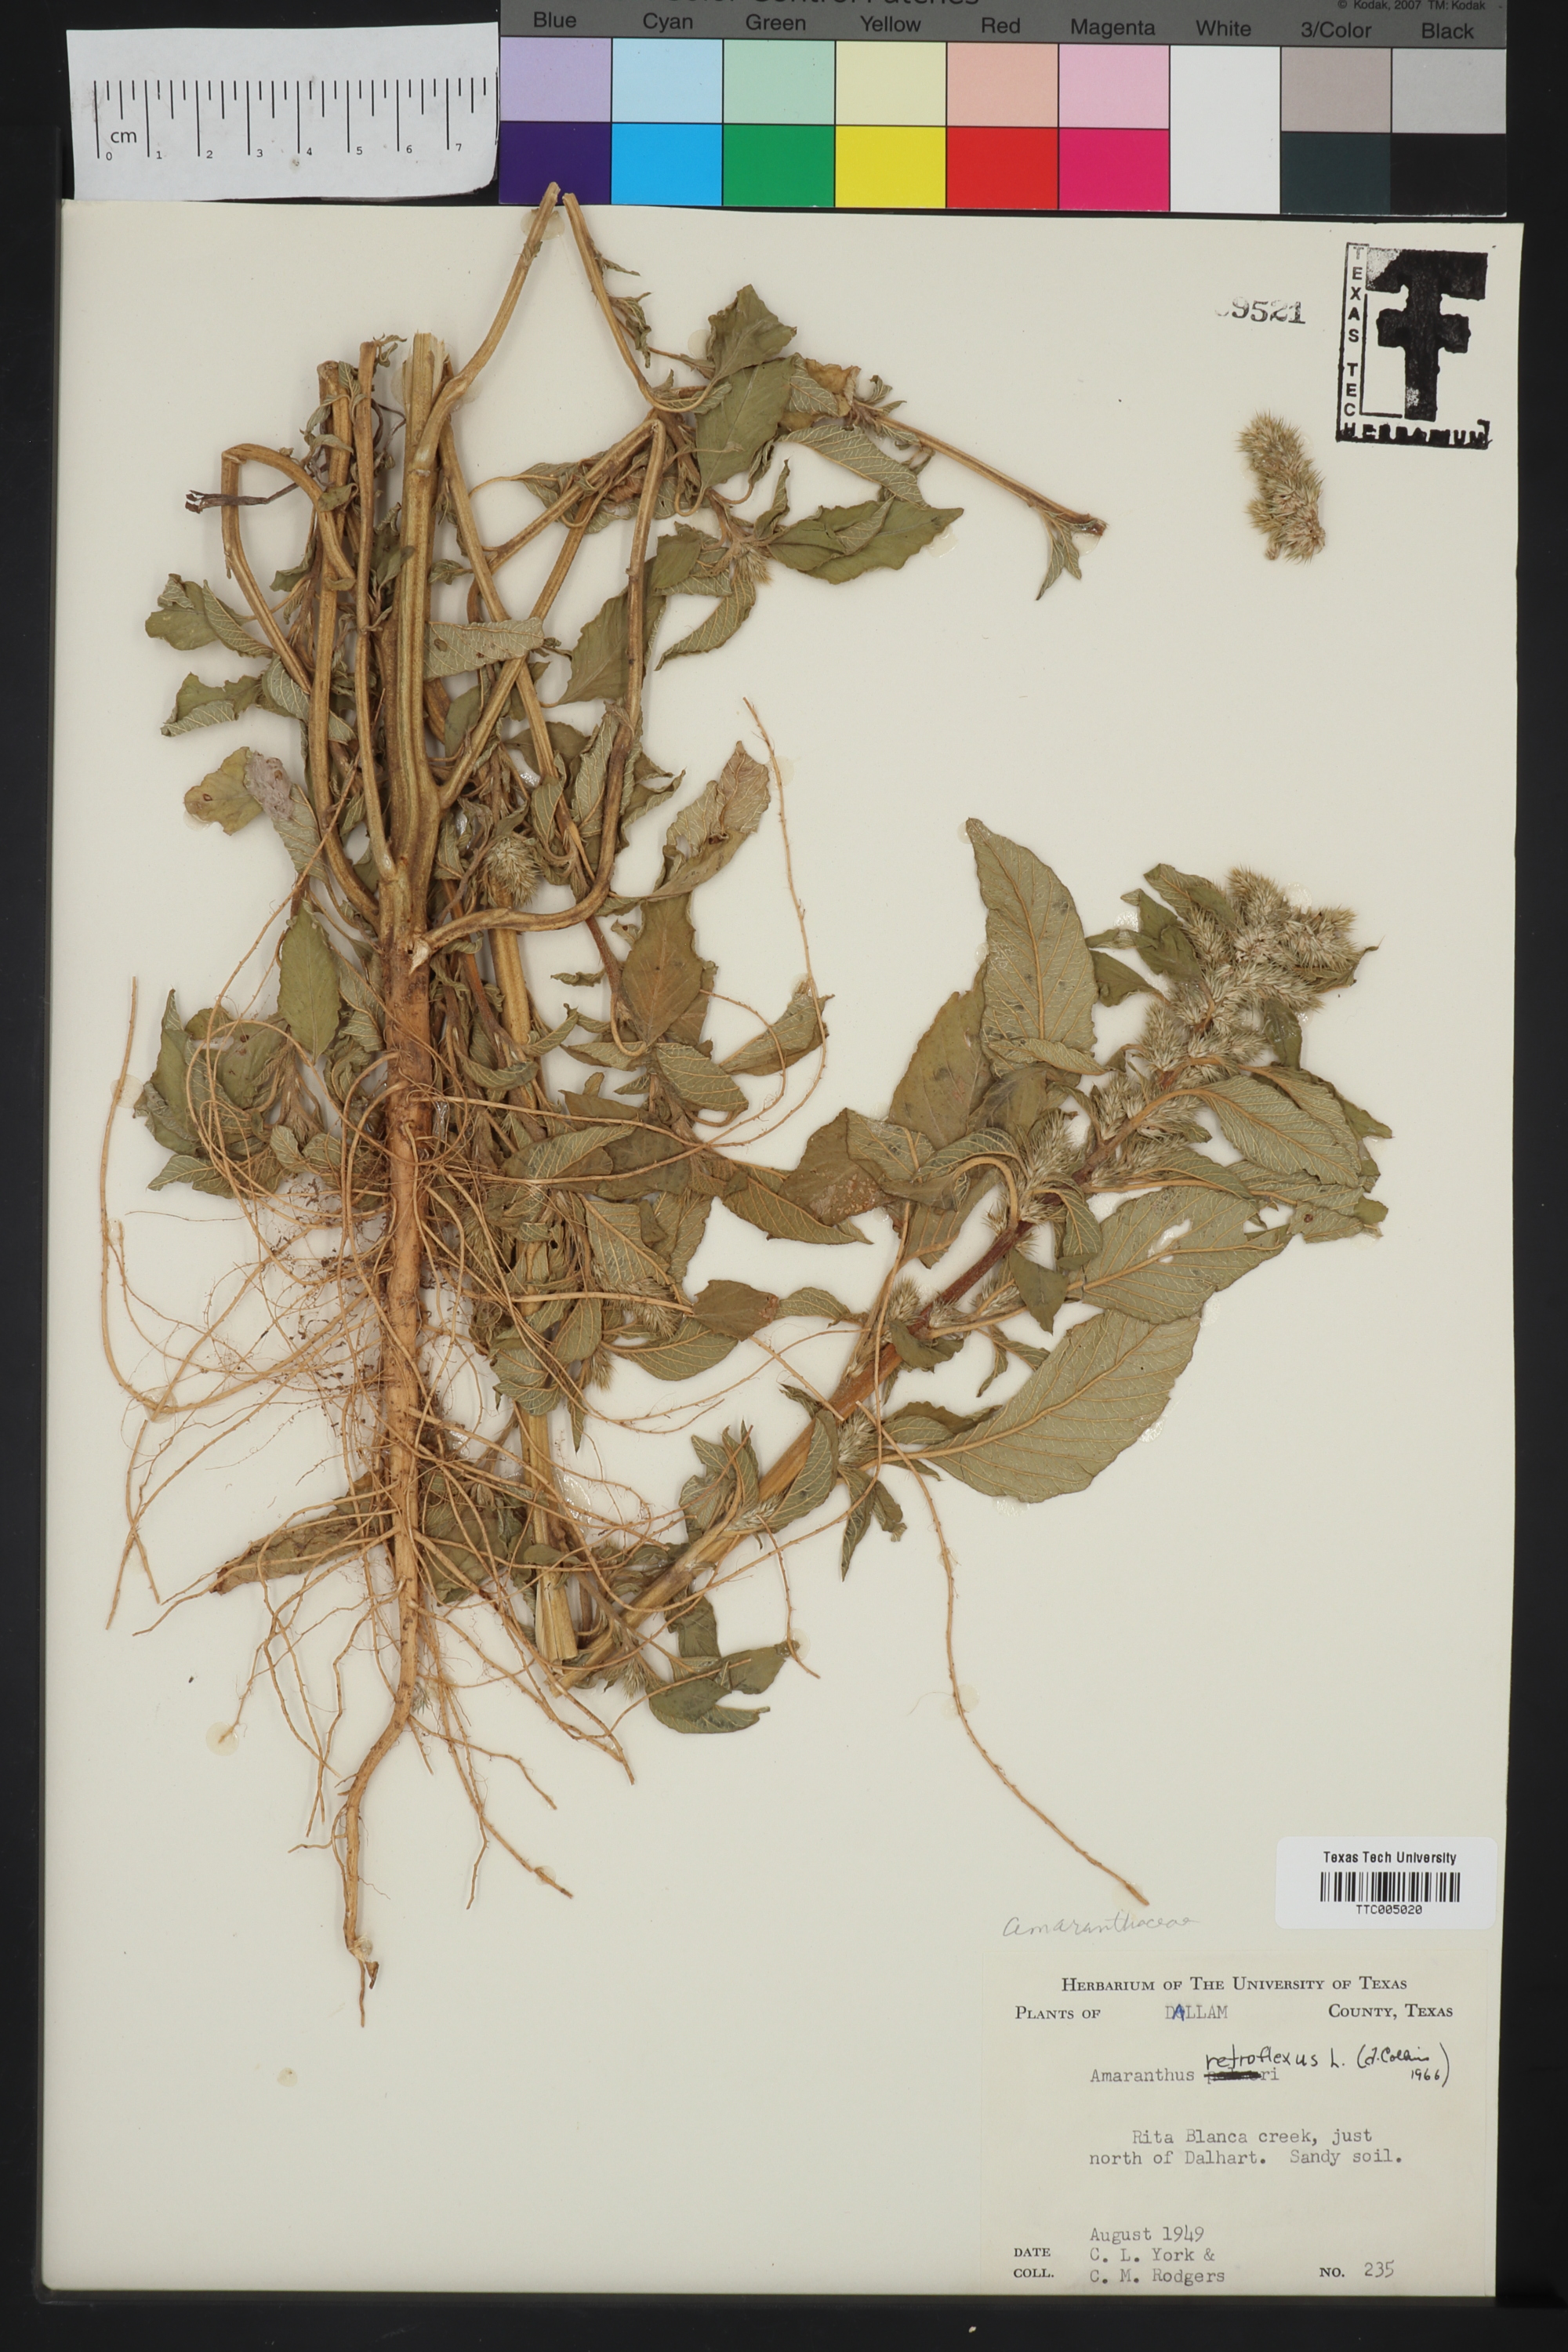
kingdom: Plantae
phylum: Tracheophyta
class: Magnoliopsida
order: Caryophyllales
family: Amaranthaceae
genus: Amaranthus
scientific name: Amaranthus retroflexus
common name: Redroot amaranth
